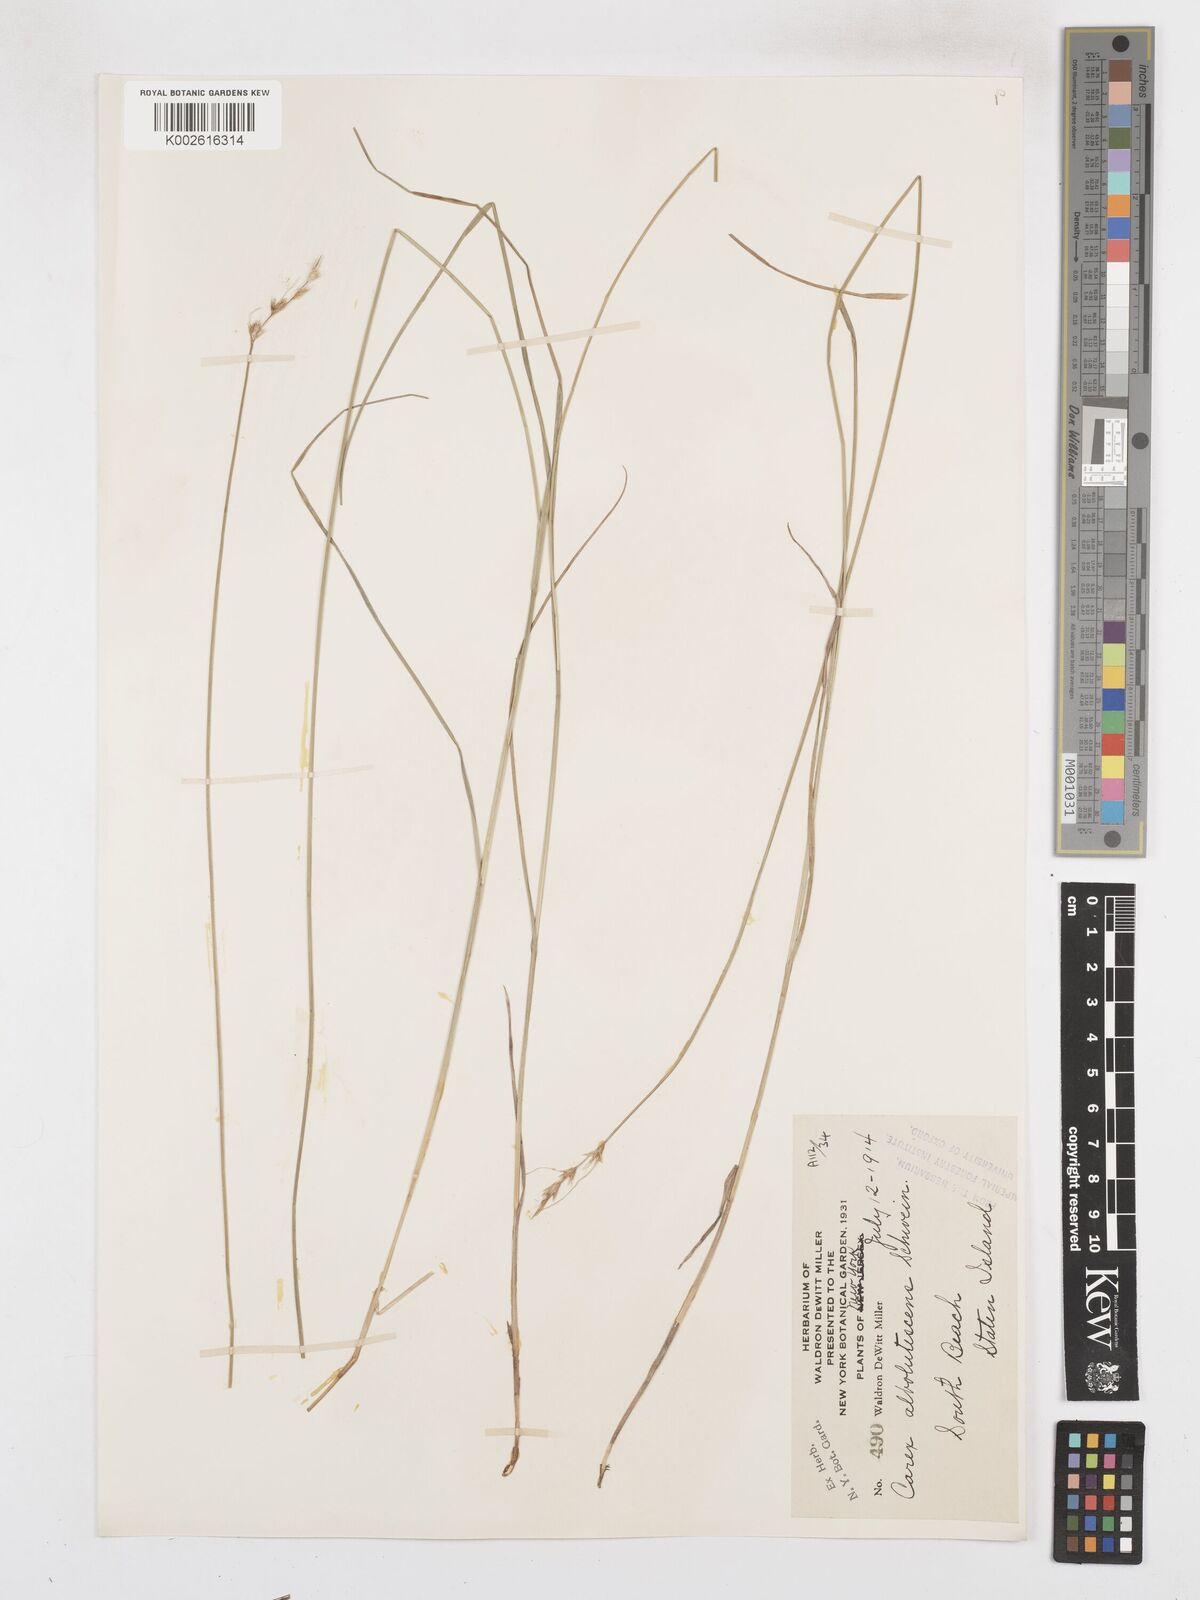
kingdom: Plantae
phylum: Tracheophyta
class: Liliopsida
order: Poales
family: Cyperaceae
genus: Carex
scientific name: Carex albolutescens
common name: Freenish white sedge
